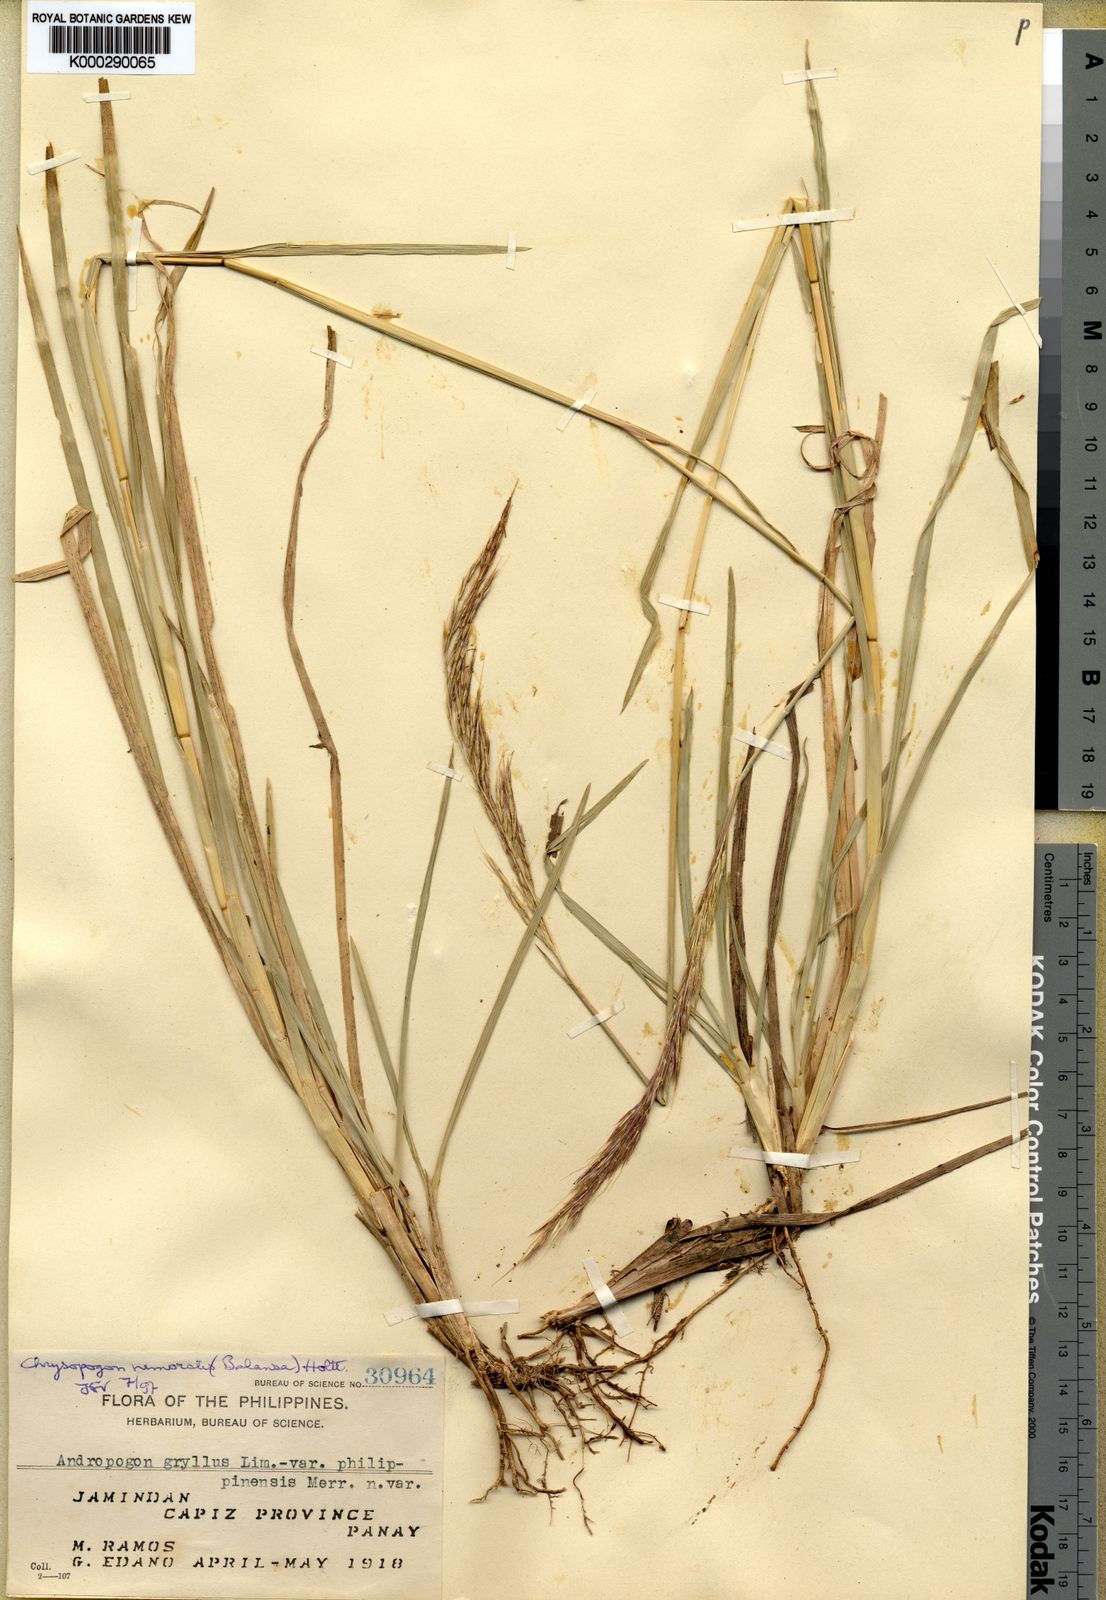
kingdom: Plantae
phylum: Tracheophyta
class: Liliopsida
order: Poales
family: Poaceae
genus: Chrysopogon
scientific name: Chrysopogon nemoralis
